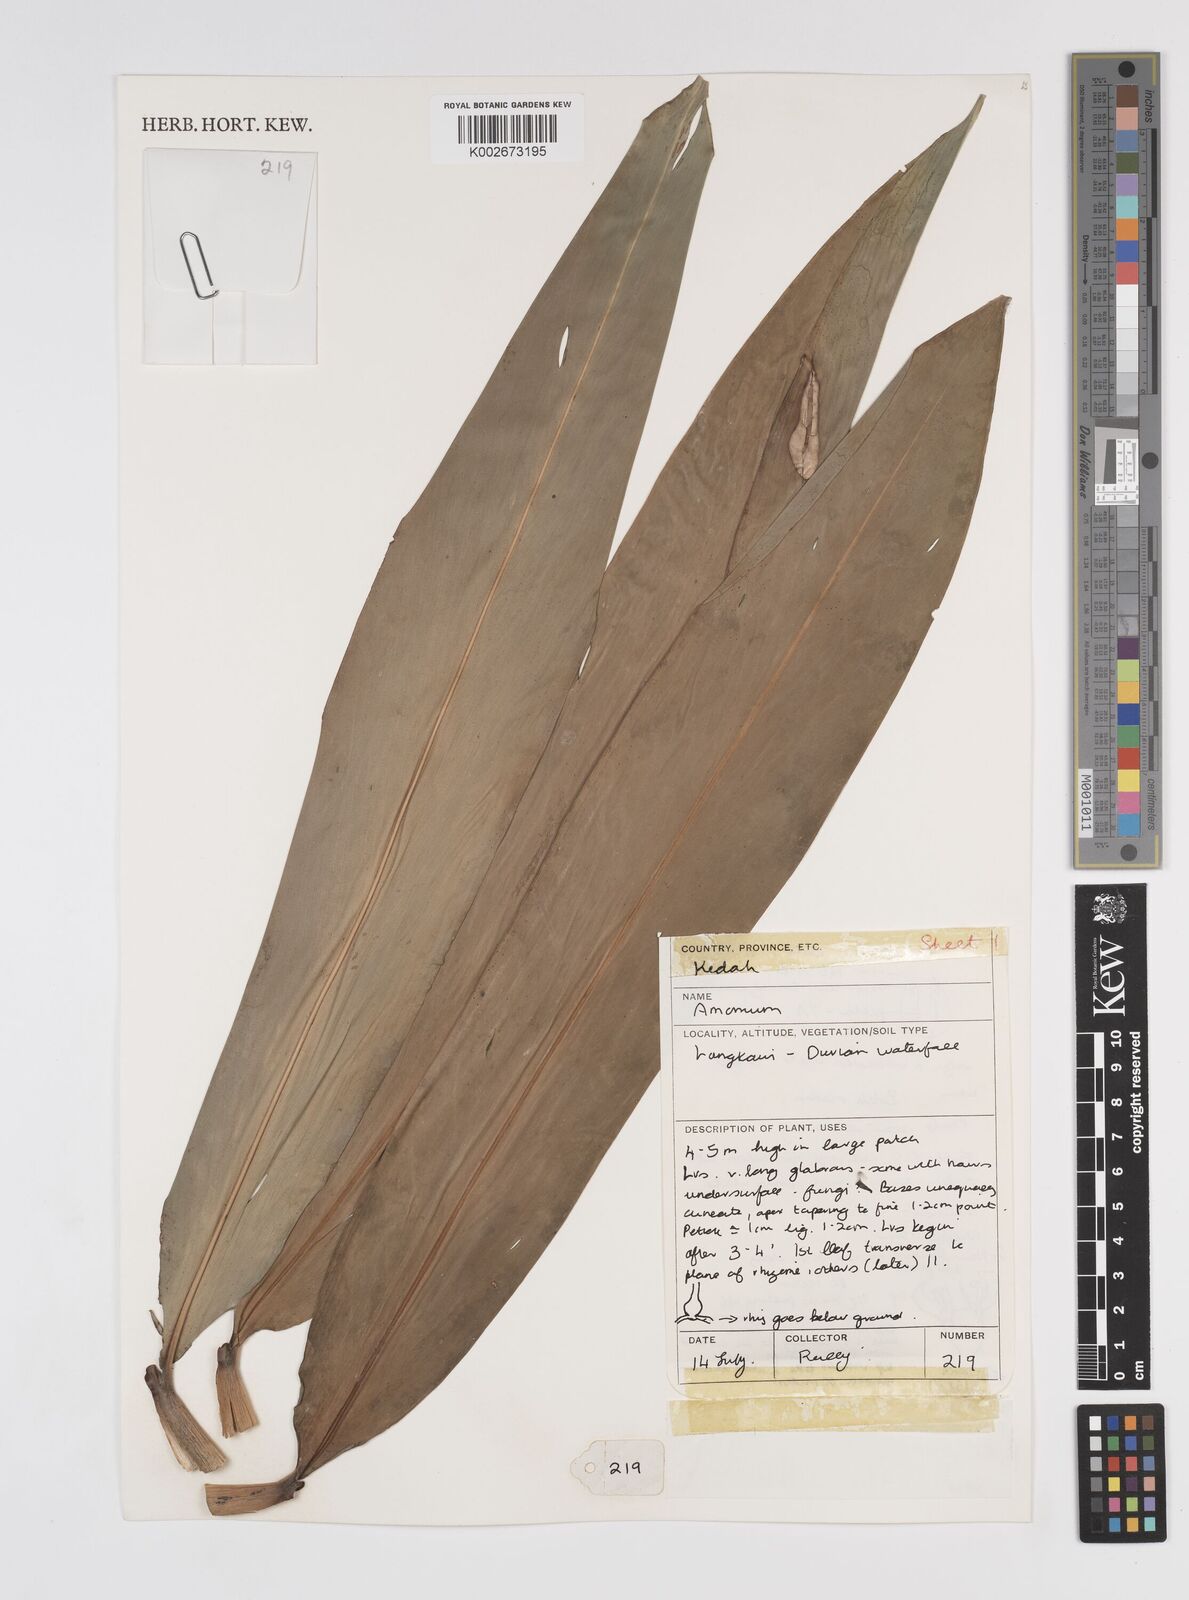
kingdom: Plantae
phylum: Tracheophyta
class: Liliopsida
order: Zingiberales
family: Zingiberaceae
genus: Amomum
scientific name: Amomum
